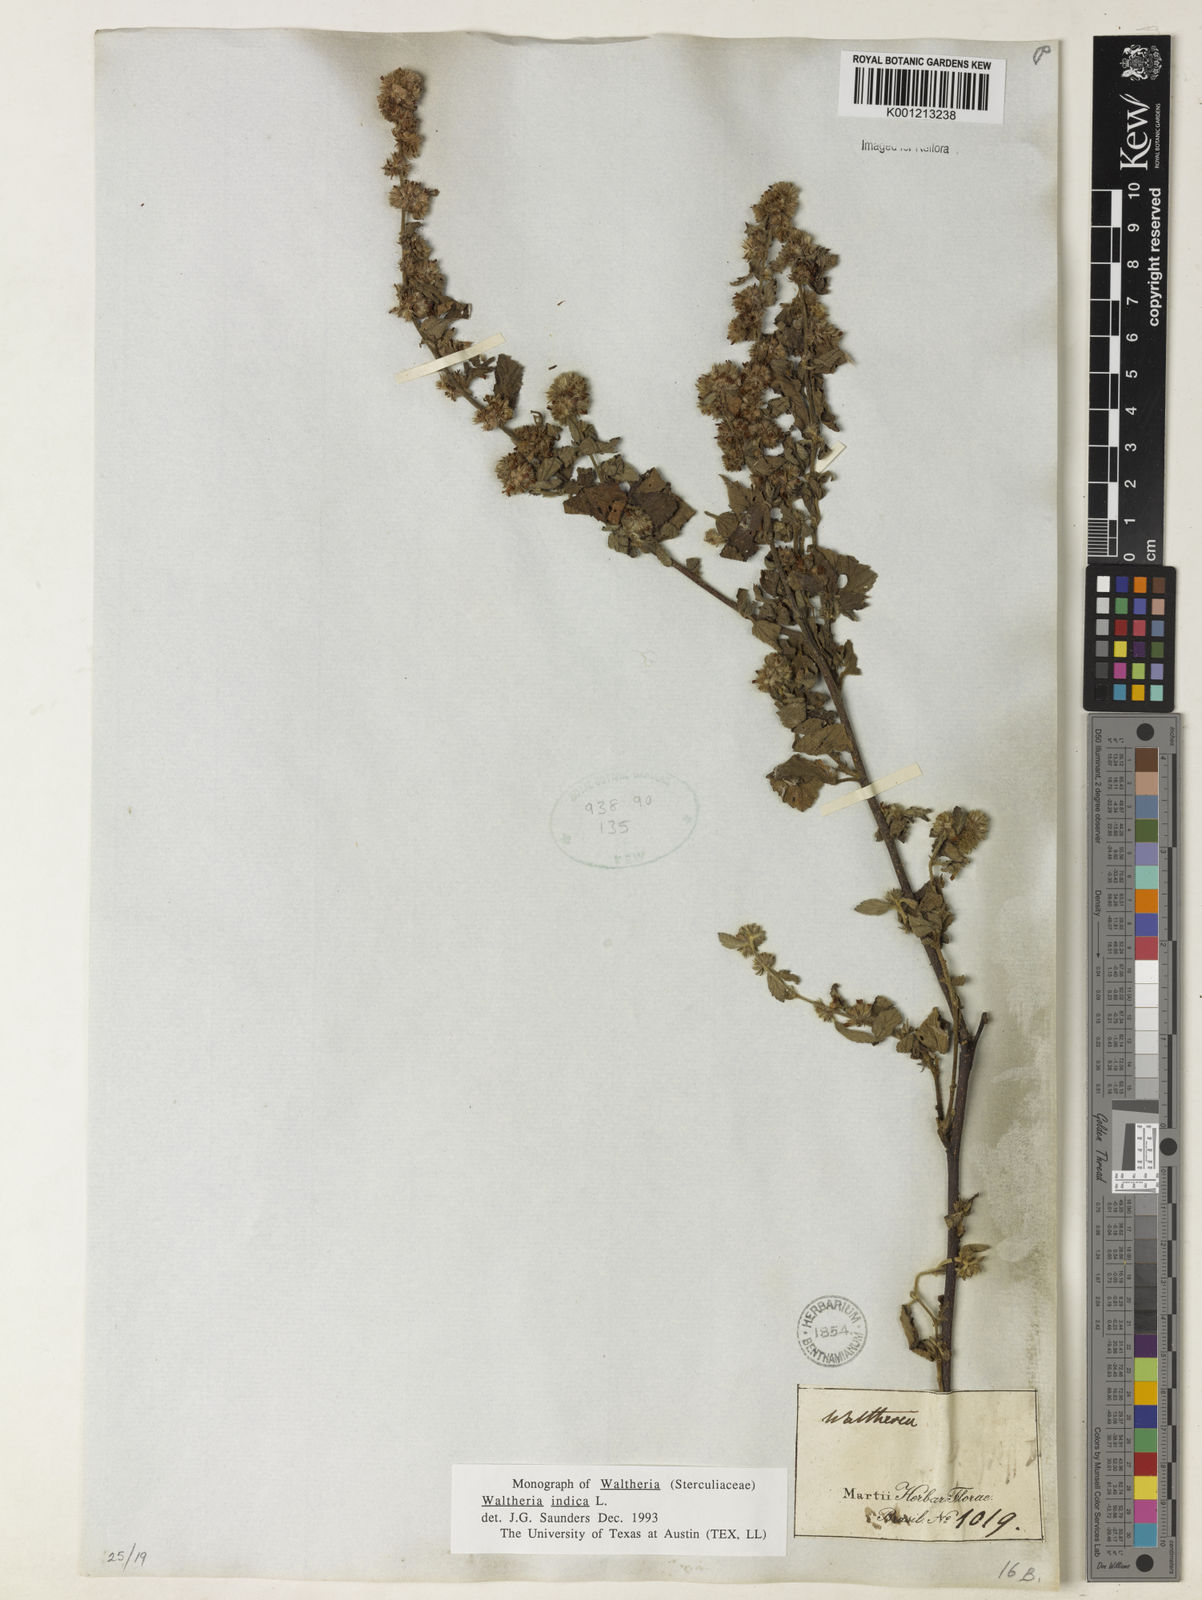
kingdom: Plantae
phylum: Tracheophyta
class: Magnoliopsida
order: Malvales
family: Malvaceae
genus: Waltheria
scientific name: Waltheria indica
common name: Leather-coat
